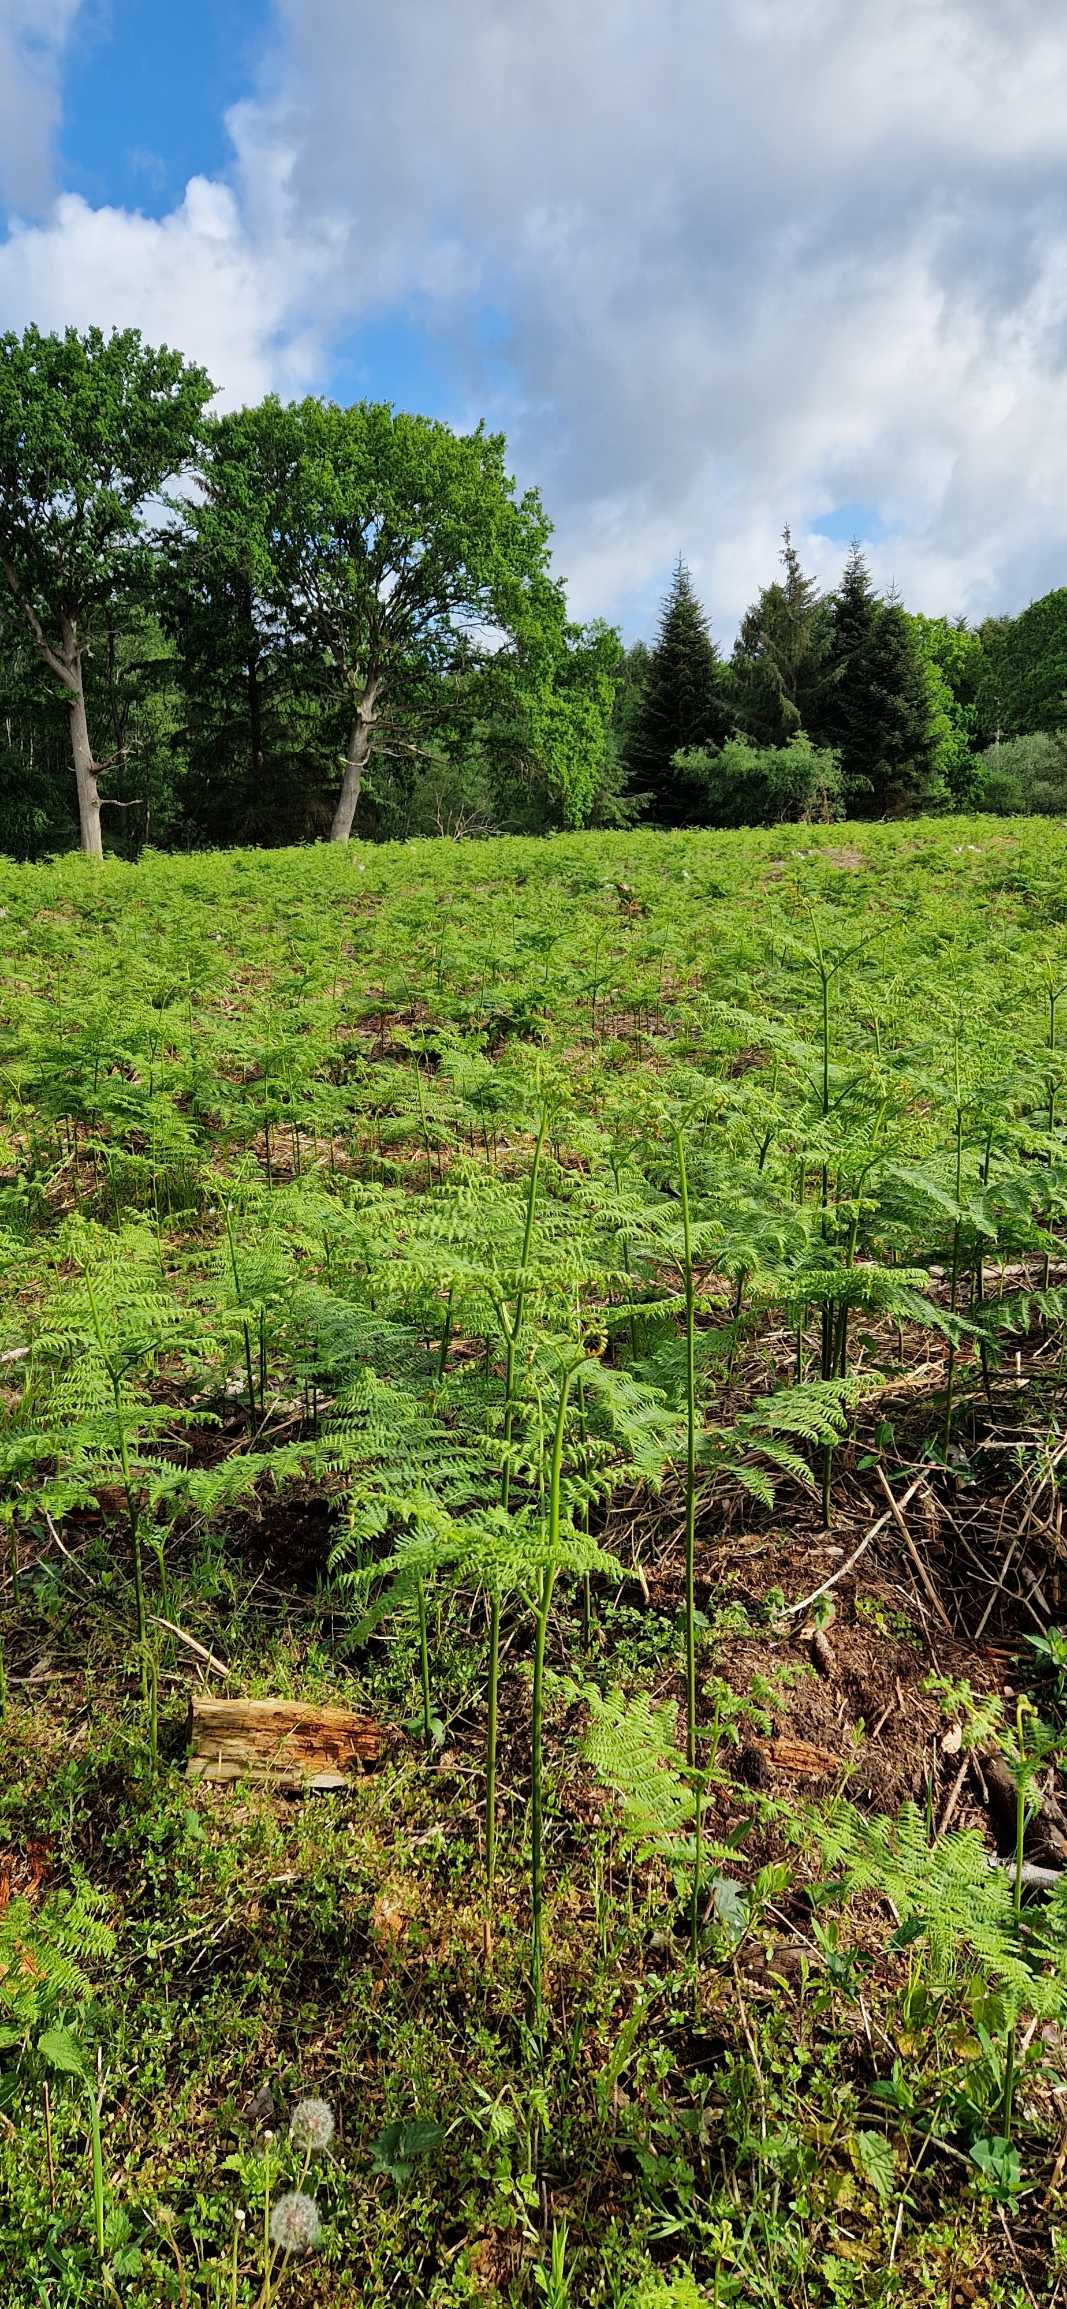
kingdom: Plantae
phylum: Tracheophyta
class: Polypodiopsida
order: Polypodiales
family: Dennstaedtiaceae
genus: Pteridium
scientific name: Pteridium aquilinum
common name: Ørnebregne
